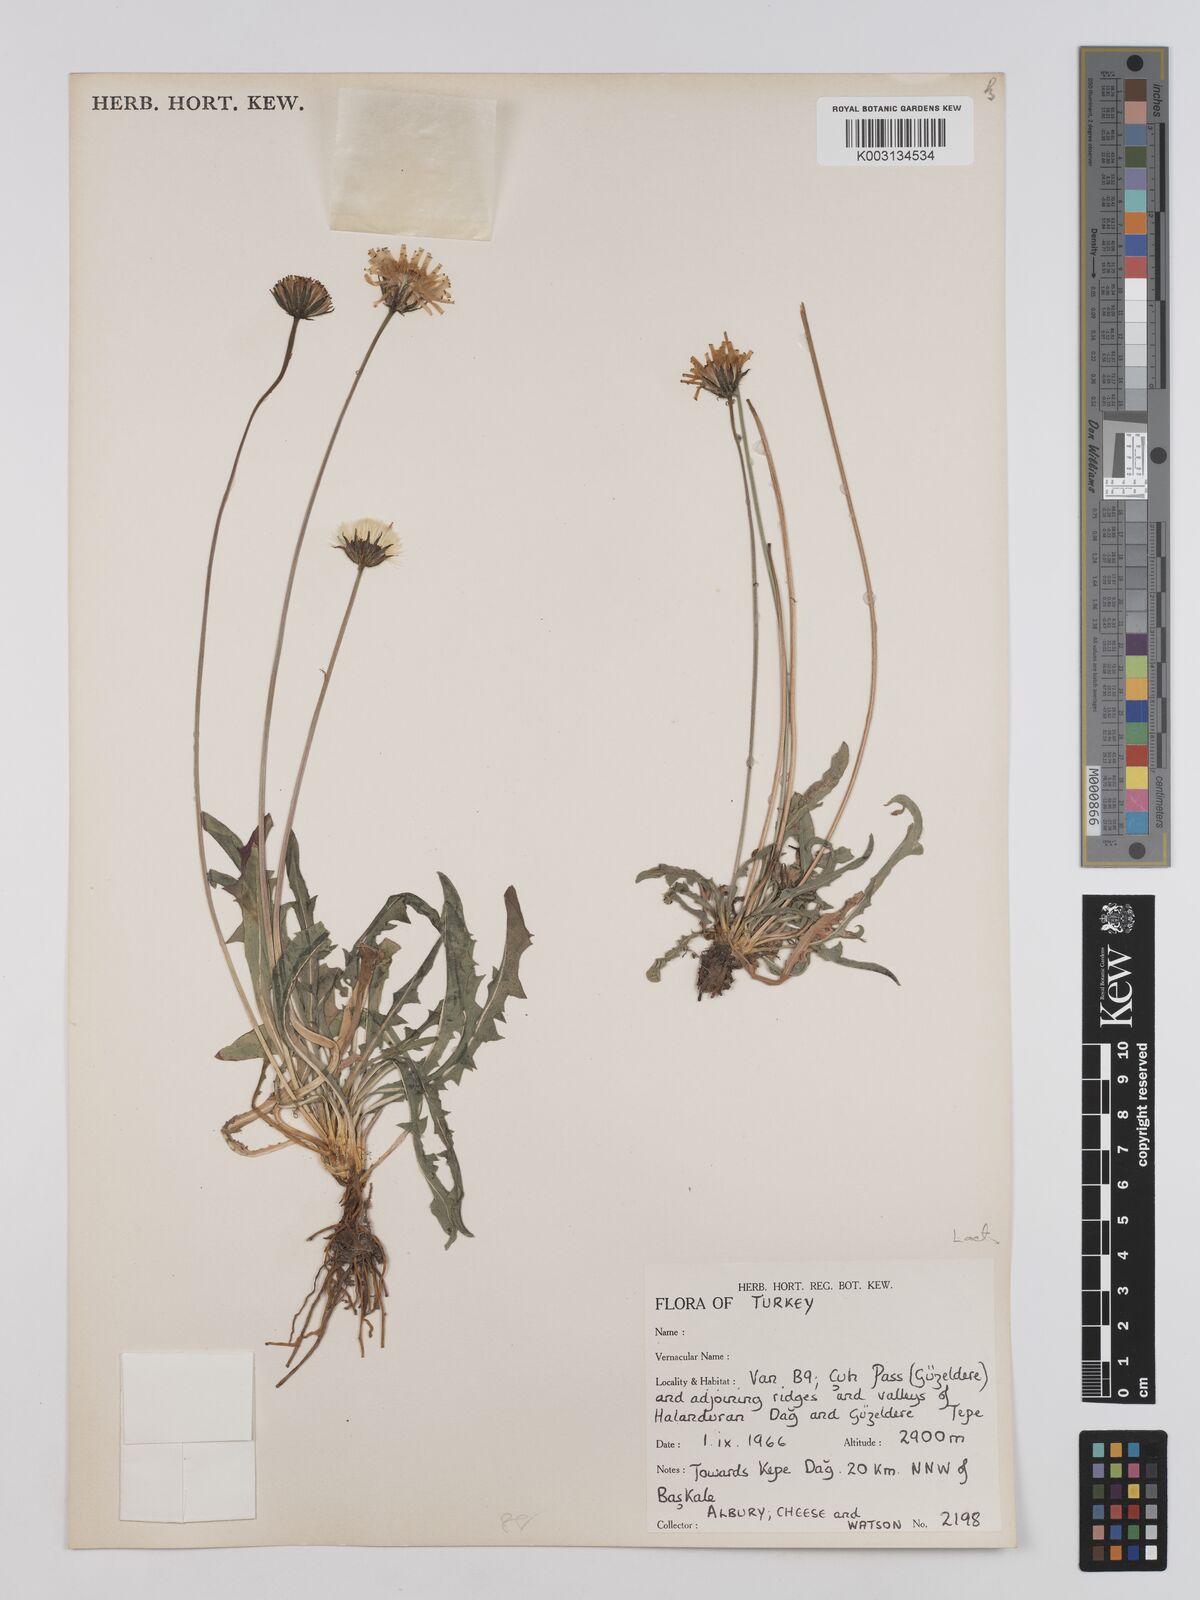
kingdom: Plantae
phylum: Tracheophyta
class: Magnoliopsida
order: Asterales
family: Asteraceae
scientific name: Asteraceae
